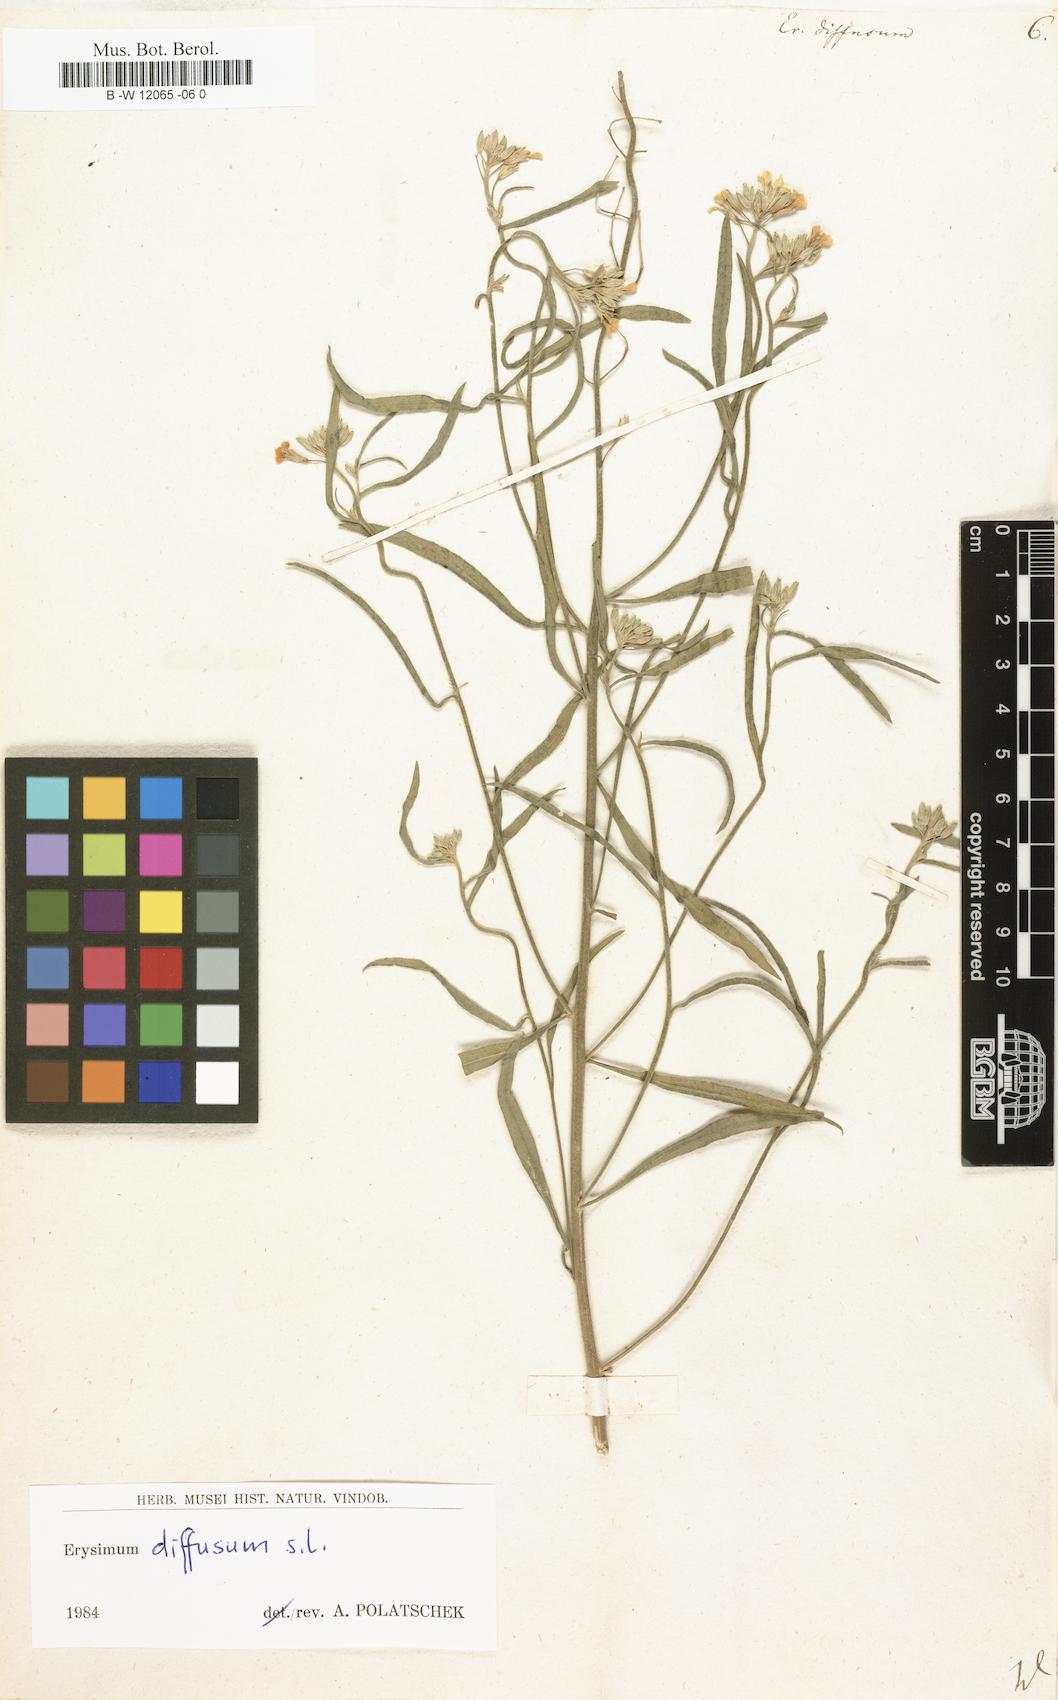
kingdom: Plantae
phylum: Tracheophyta
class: Magnoliopsida
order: Brassicales
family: Brassicaceae
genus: Erysimum
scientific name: Erysimum diffusum
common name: Diffuse wallflower
